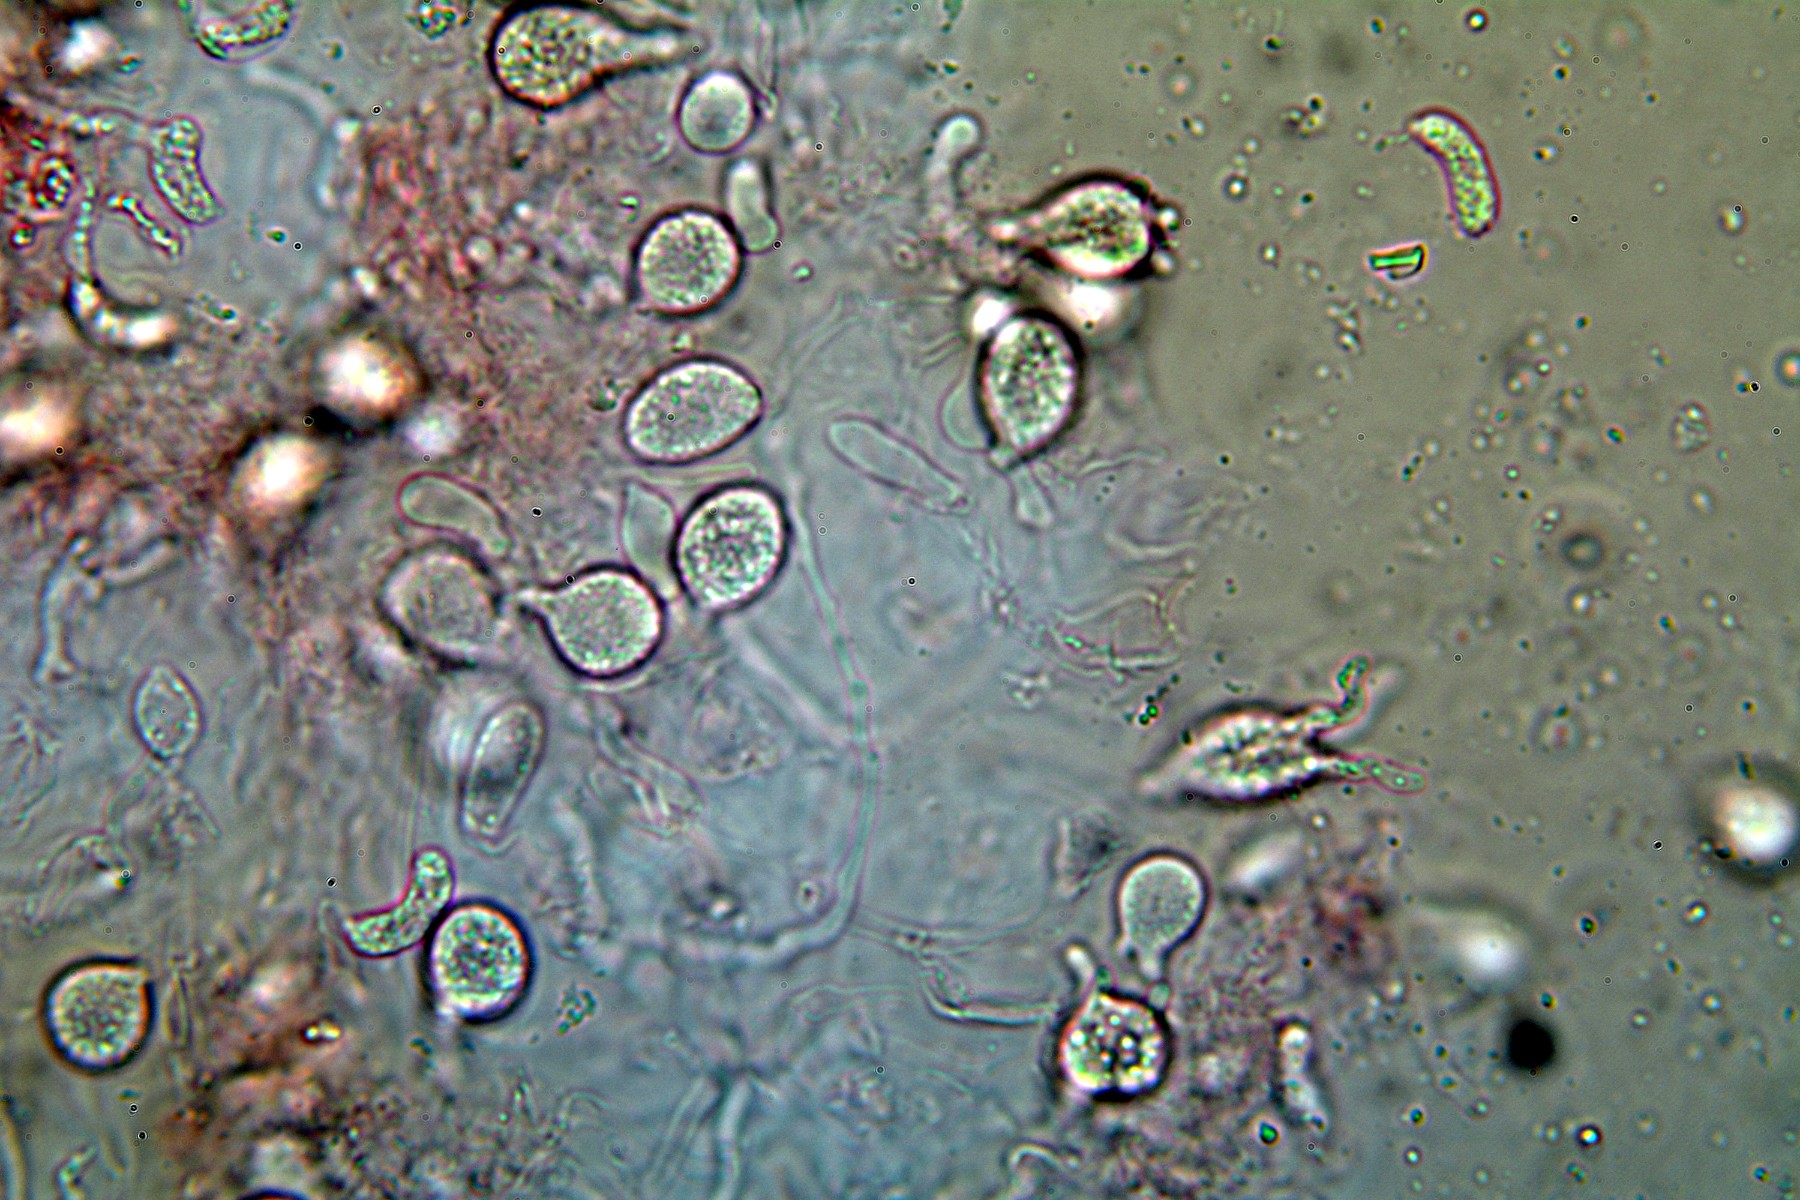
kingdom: Fungi
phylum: Basidiomycota
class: Tremellomycetes
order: Tremellales
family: Exidiaceae
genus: Exidiopsis
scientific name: Exidiopsis effusa
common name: smuk bævrehinde
